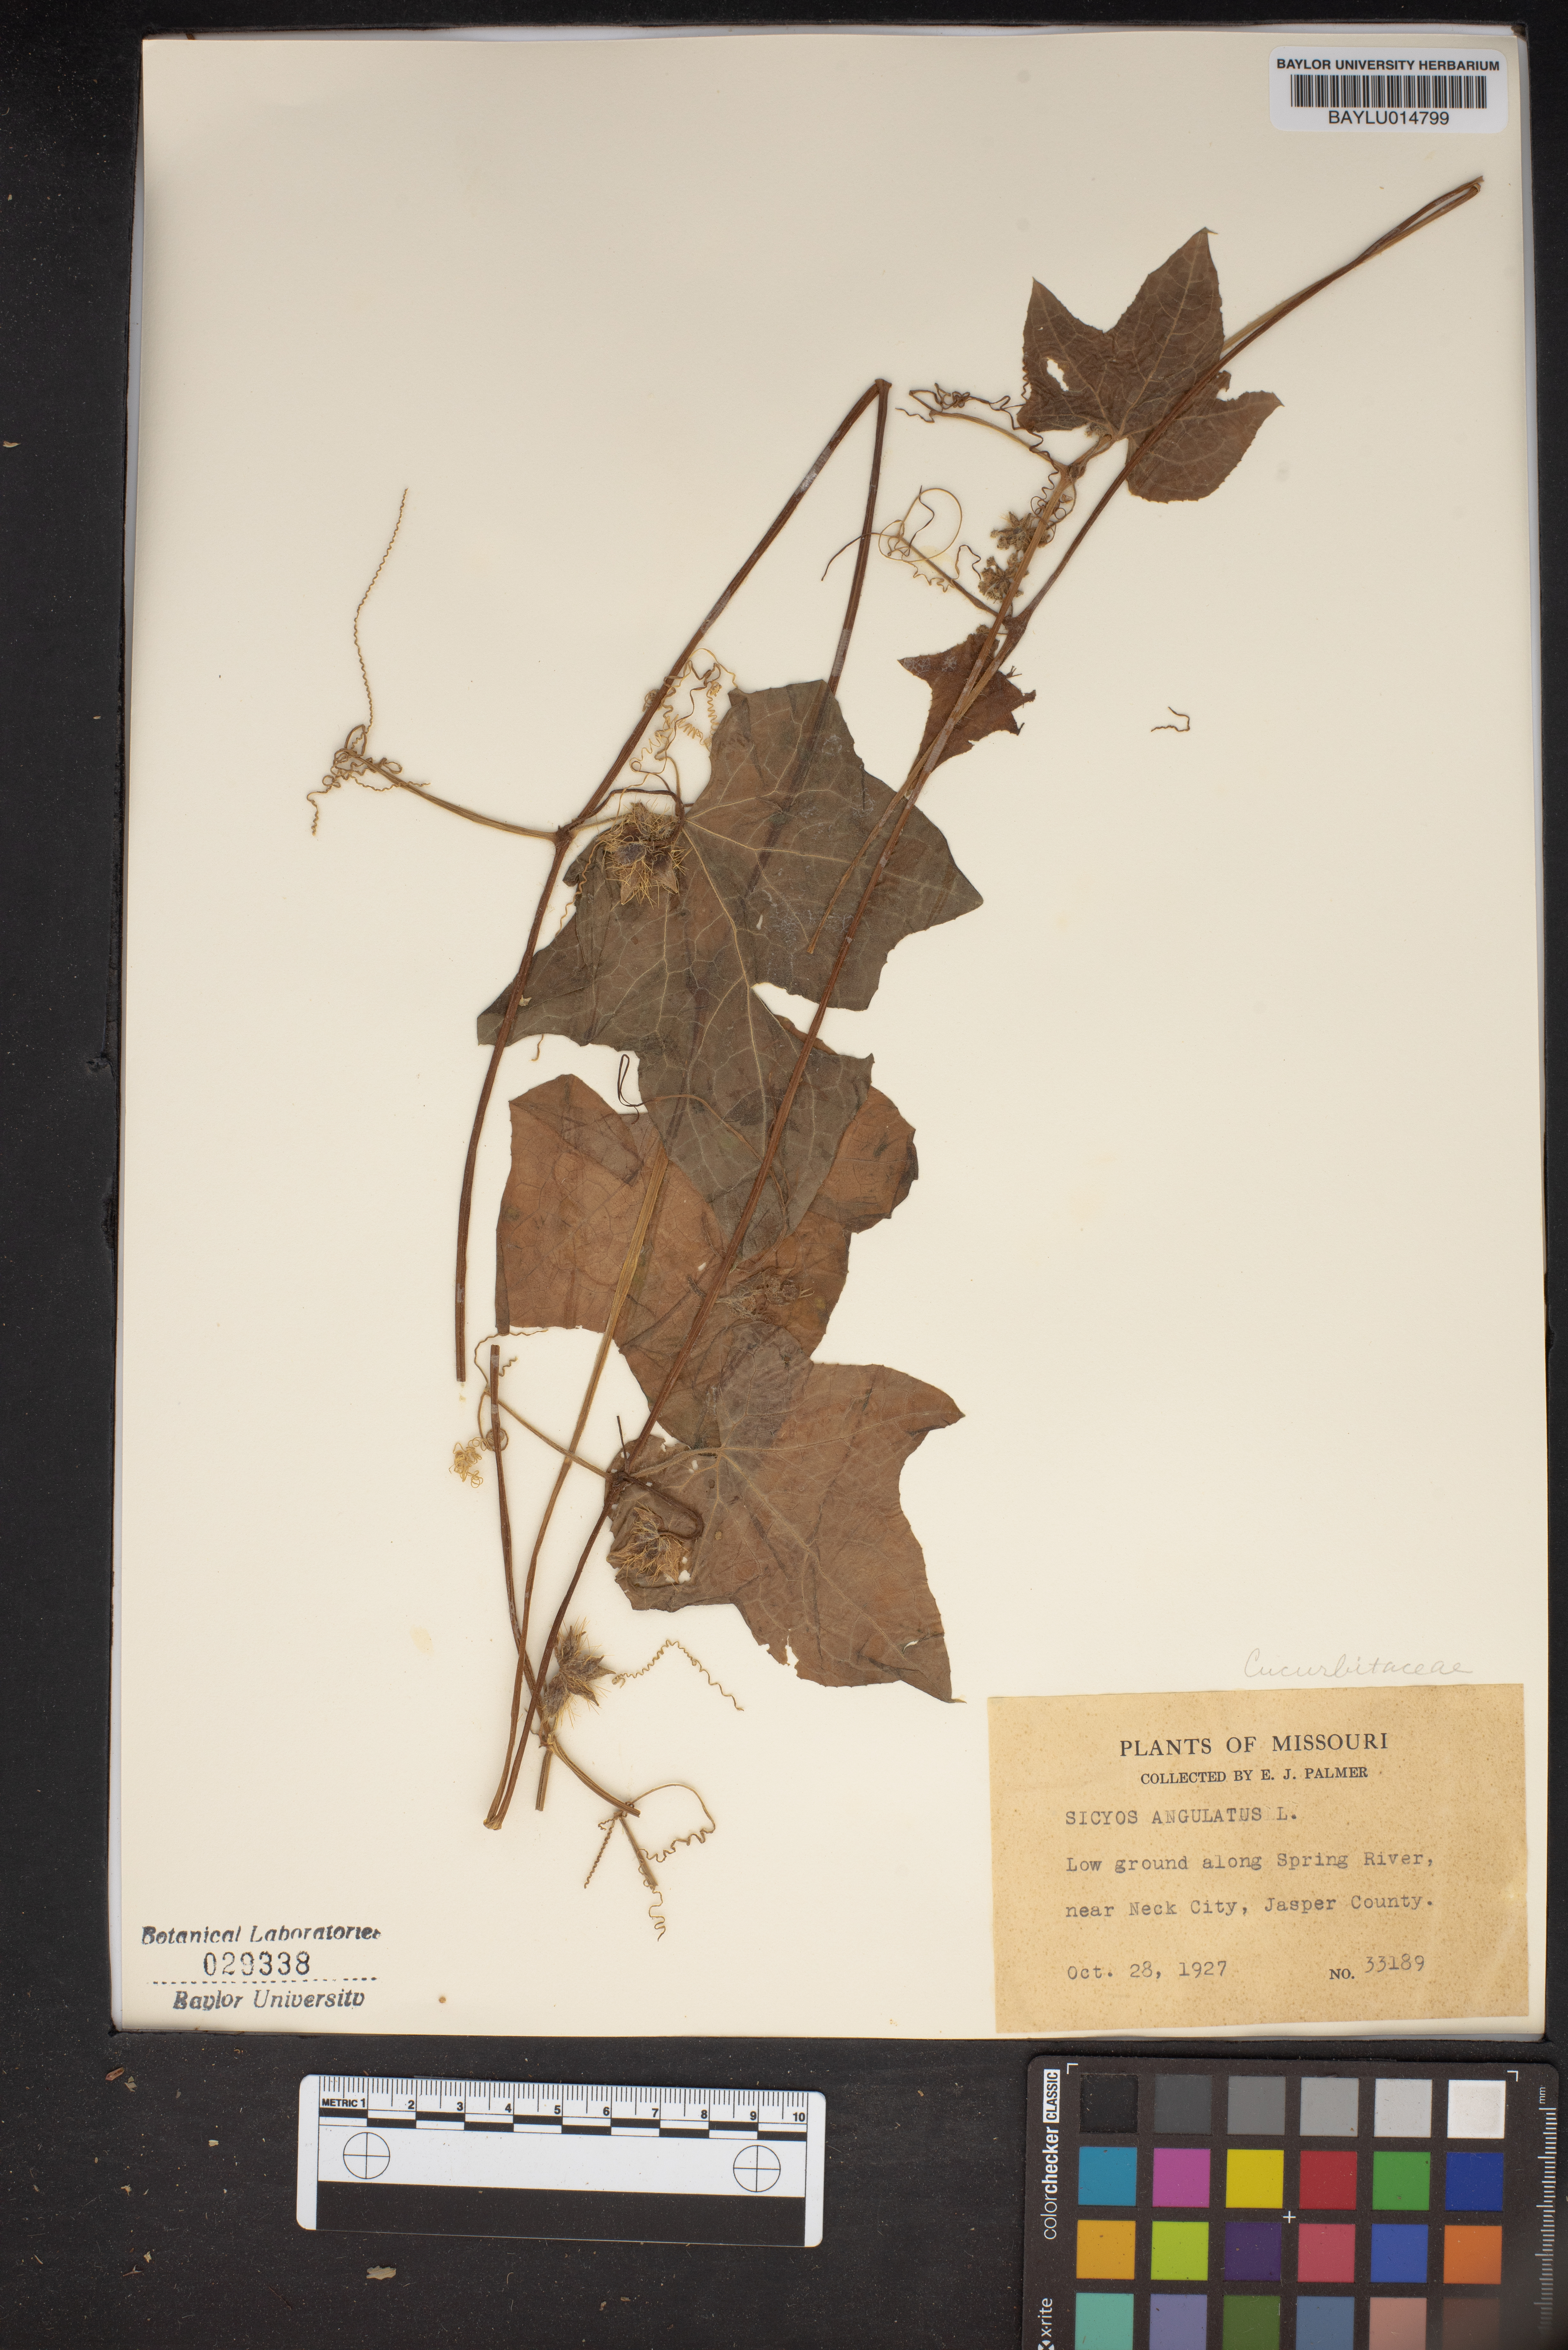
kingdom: Plantae
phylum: Tracheophyta
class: Magnoliopsida
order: Cucurbitales
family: Cucurbitaceae
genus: Sicyos
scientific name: Sicyos angulatus
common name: Angled burr cucumber
